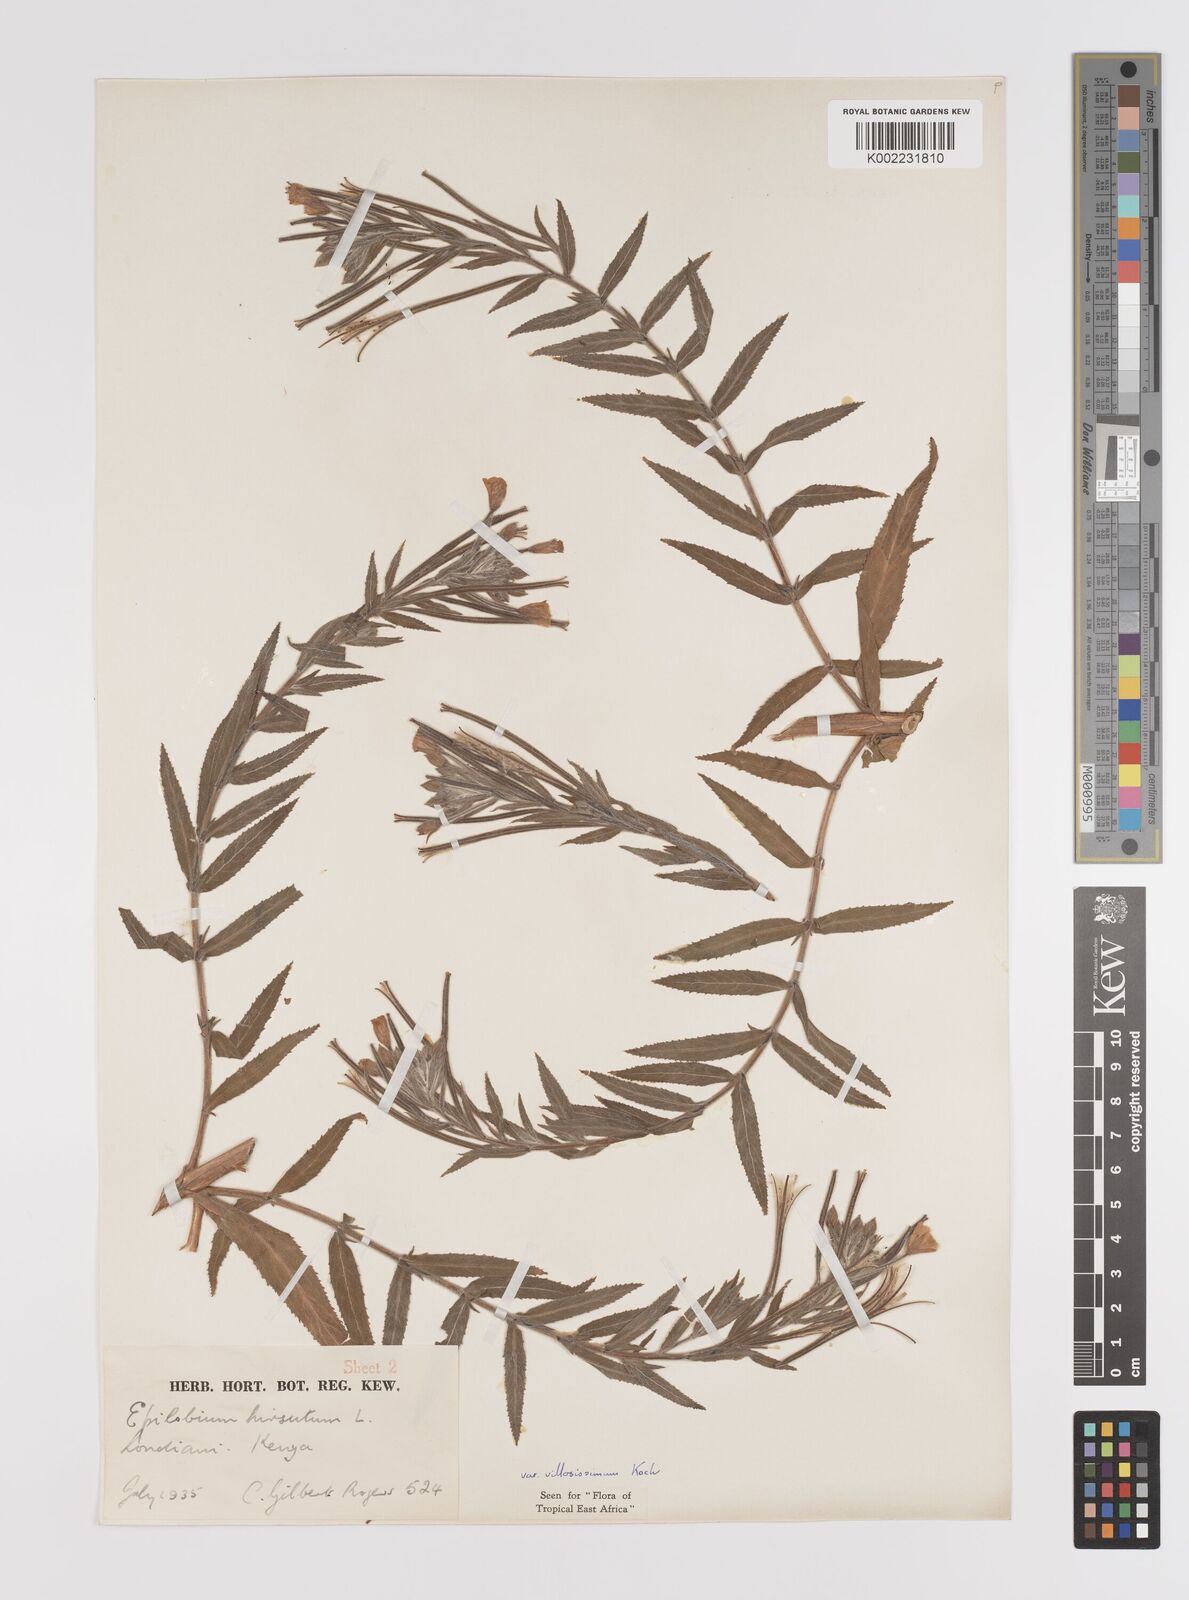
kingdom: Plantae
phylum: Tracheophyta
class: Magnoliopsida
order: Myrtales
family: Onagraceae
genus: Epilobium
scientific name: Epilobium hirsutum
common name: Great willowherb
